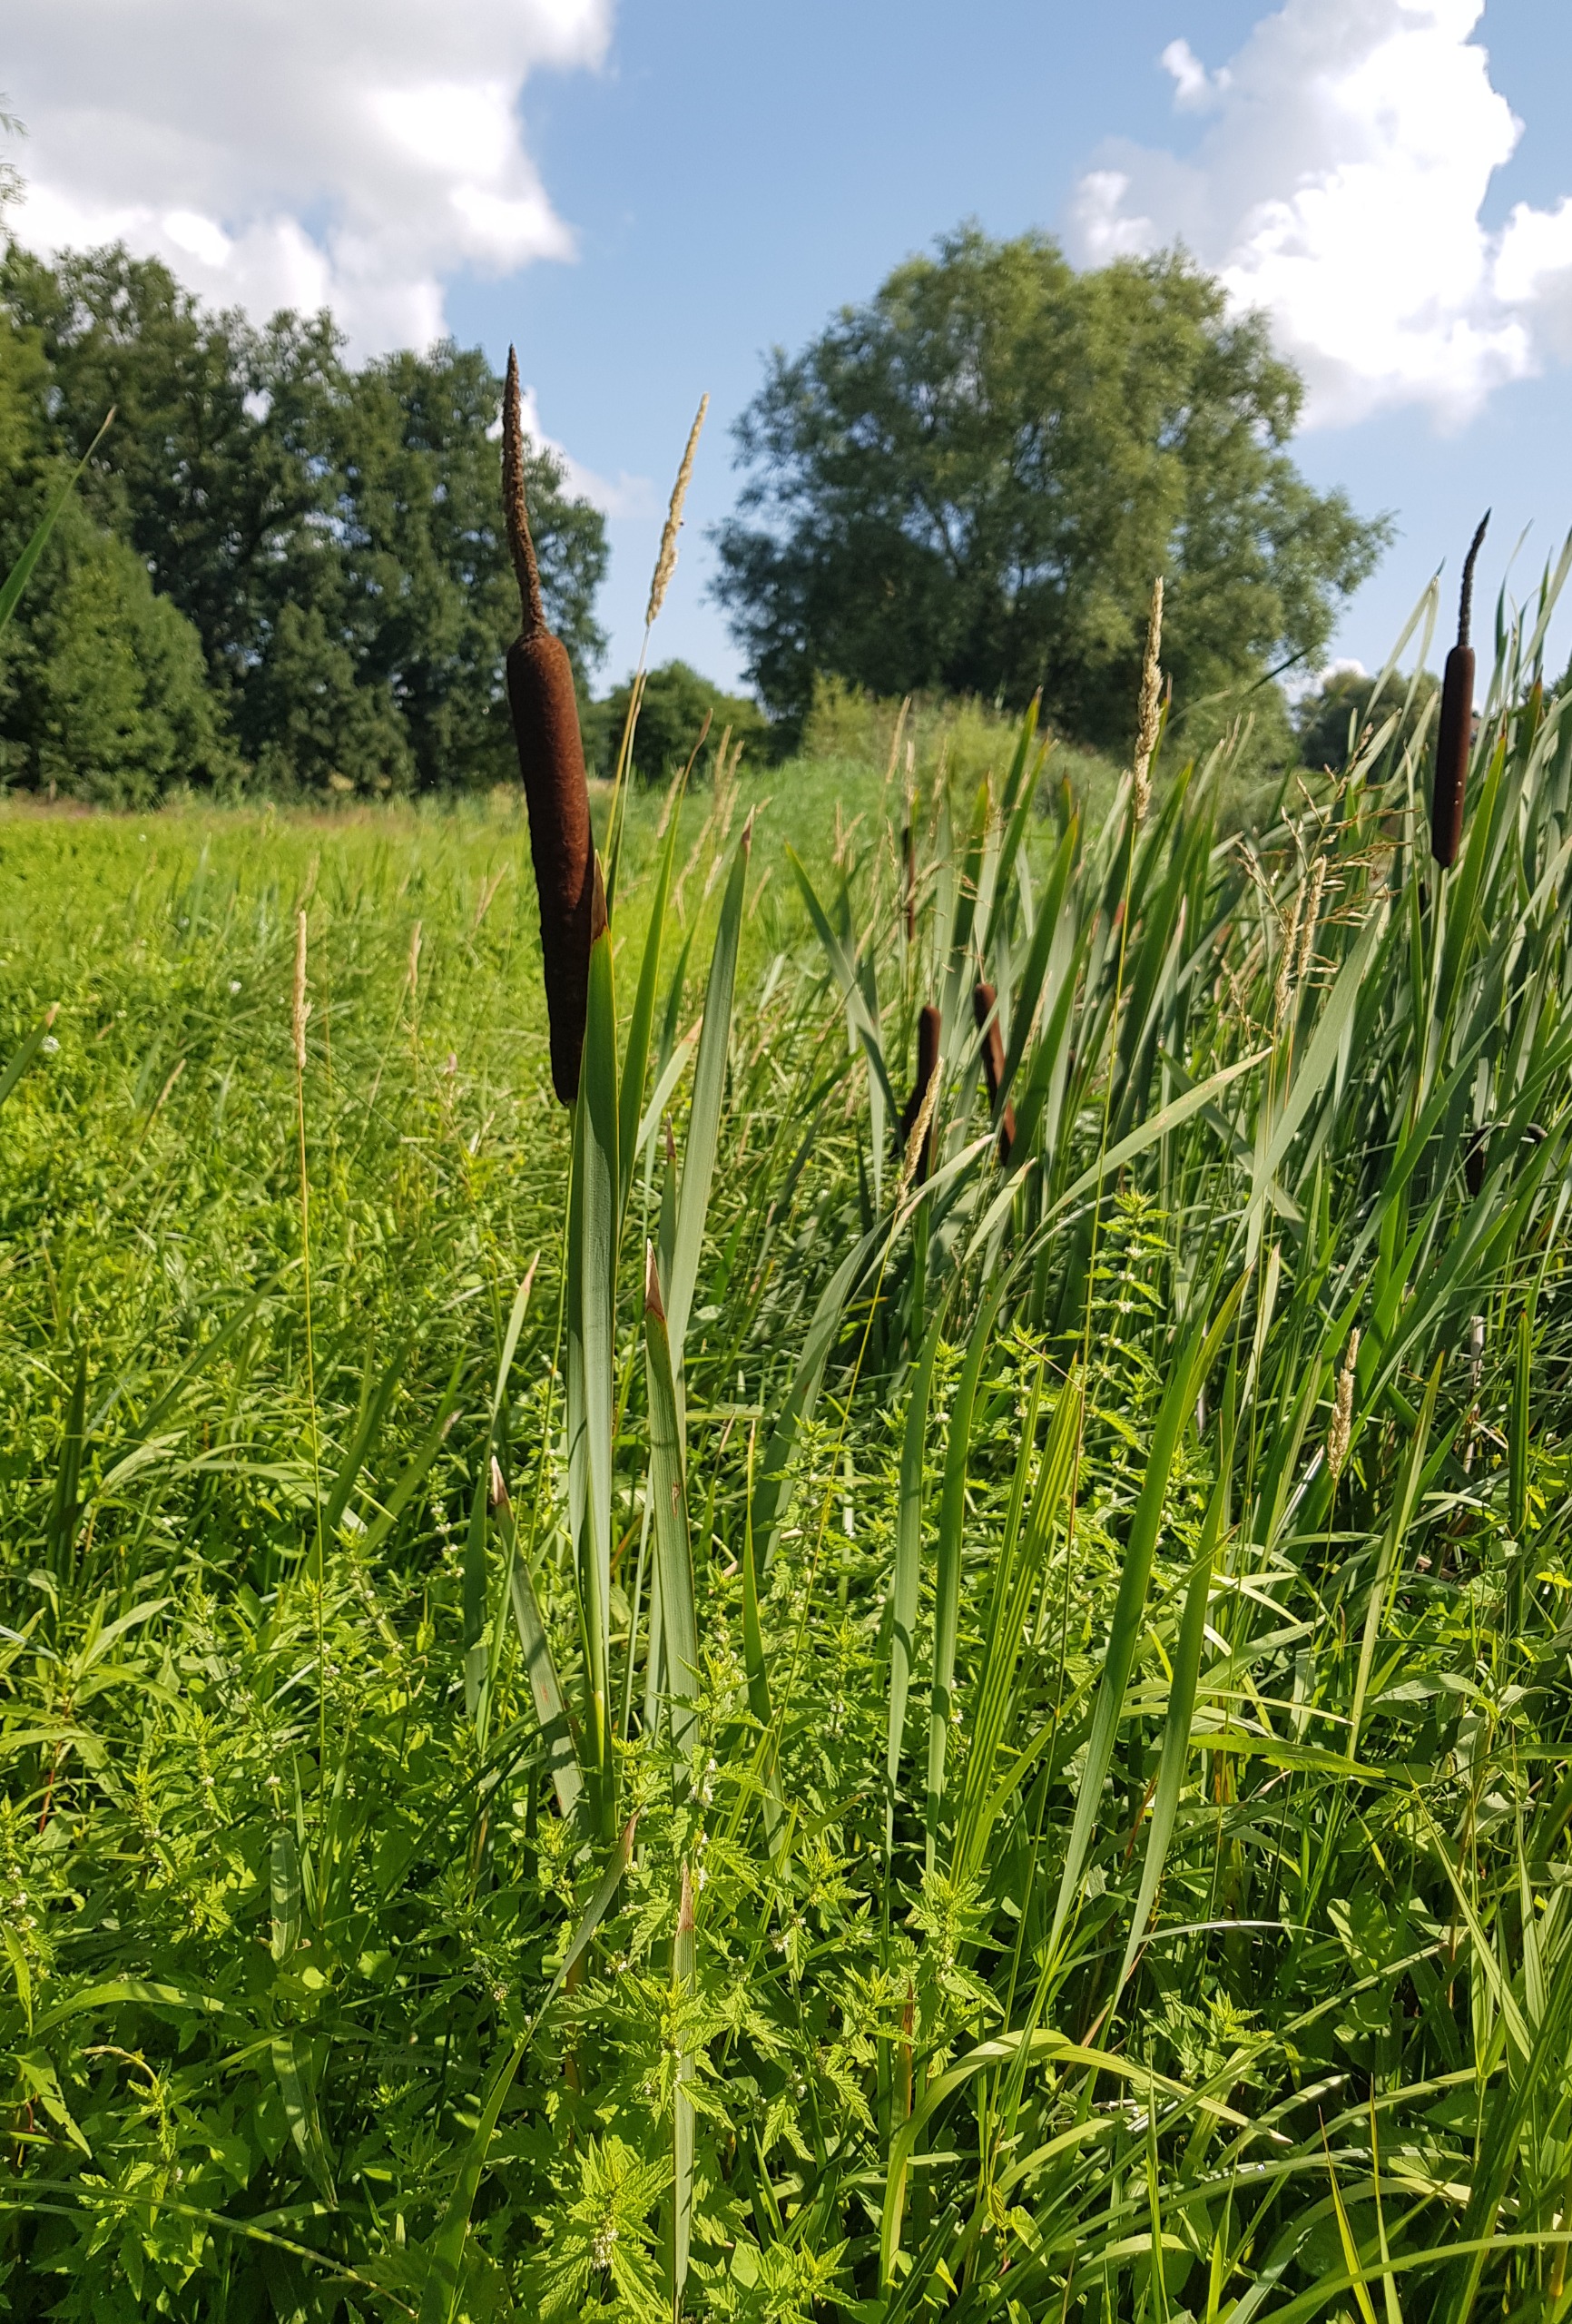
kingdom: Plantae
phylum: Tracheophyta
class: Liliopsida
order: Poales
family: Typhaceae
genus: Typha
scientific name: Typha latifolia
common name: Bredbladet dunhammer
